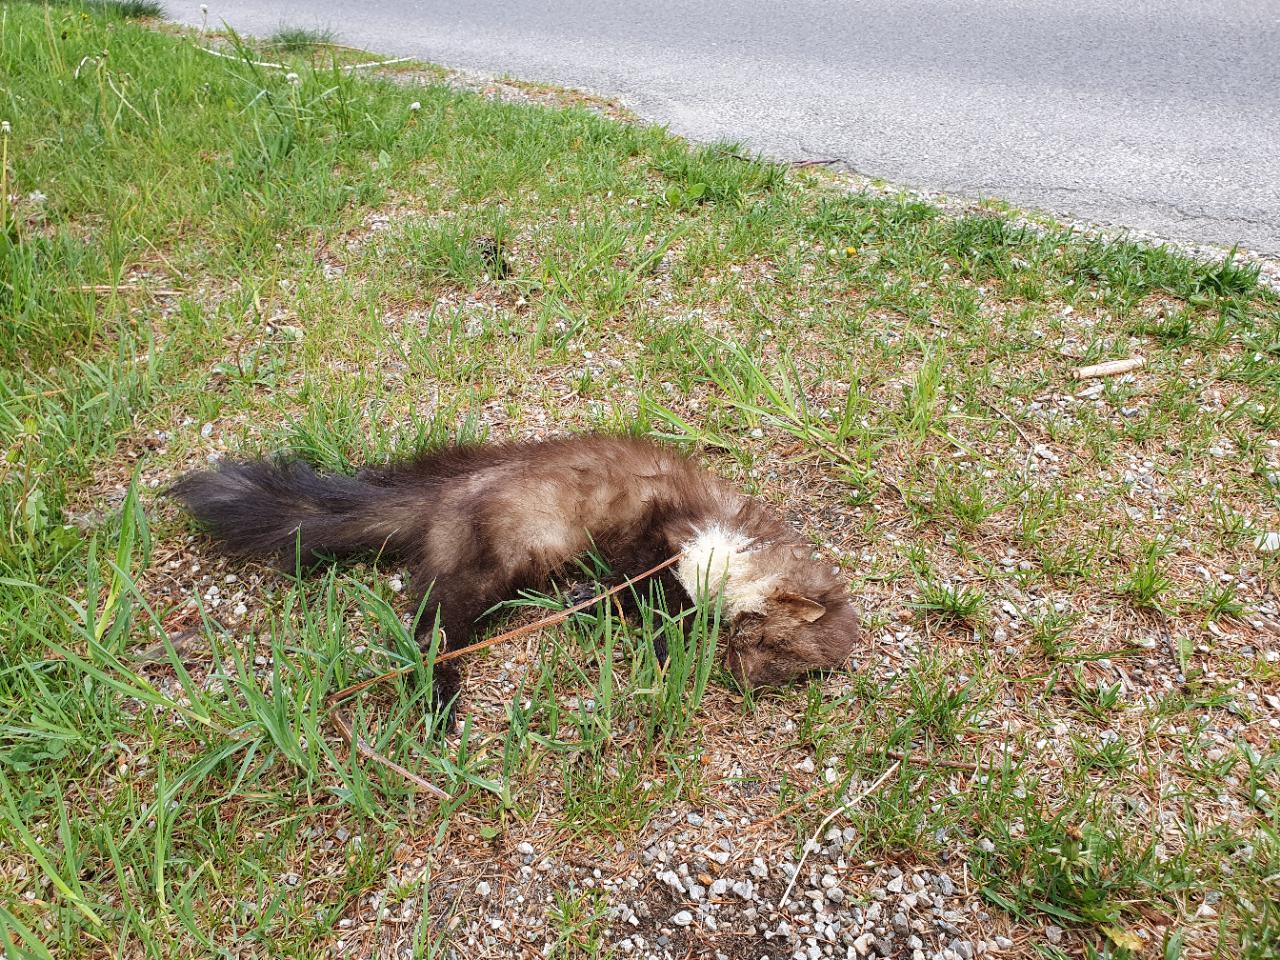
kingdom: Animalia
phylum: Chordata
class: Mammalia
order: Carnivora
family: Mustelidae
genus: Martes
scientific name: Martes
